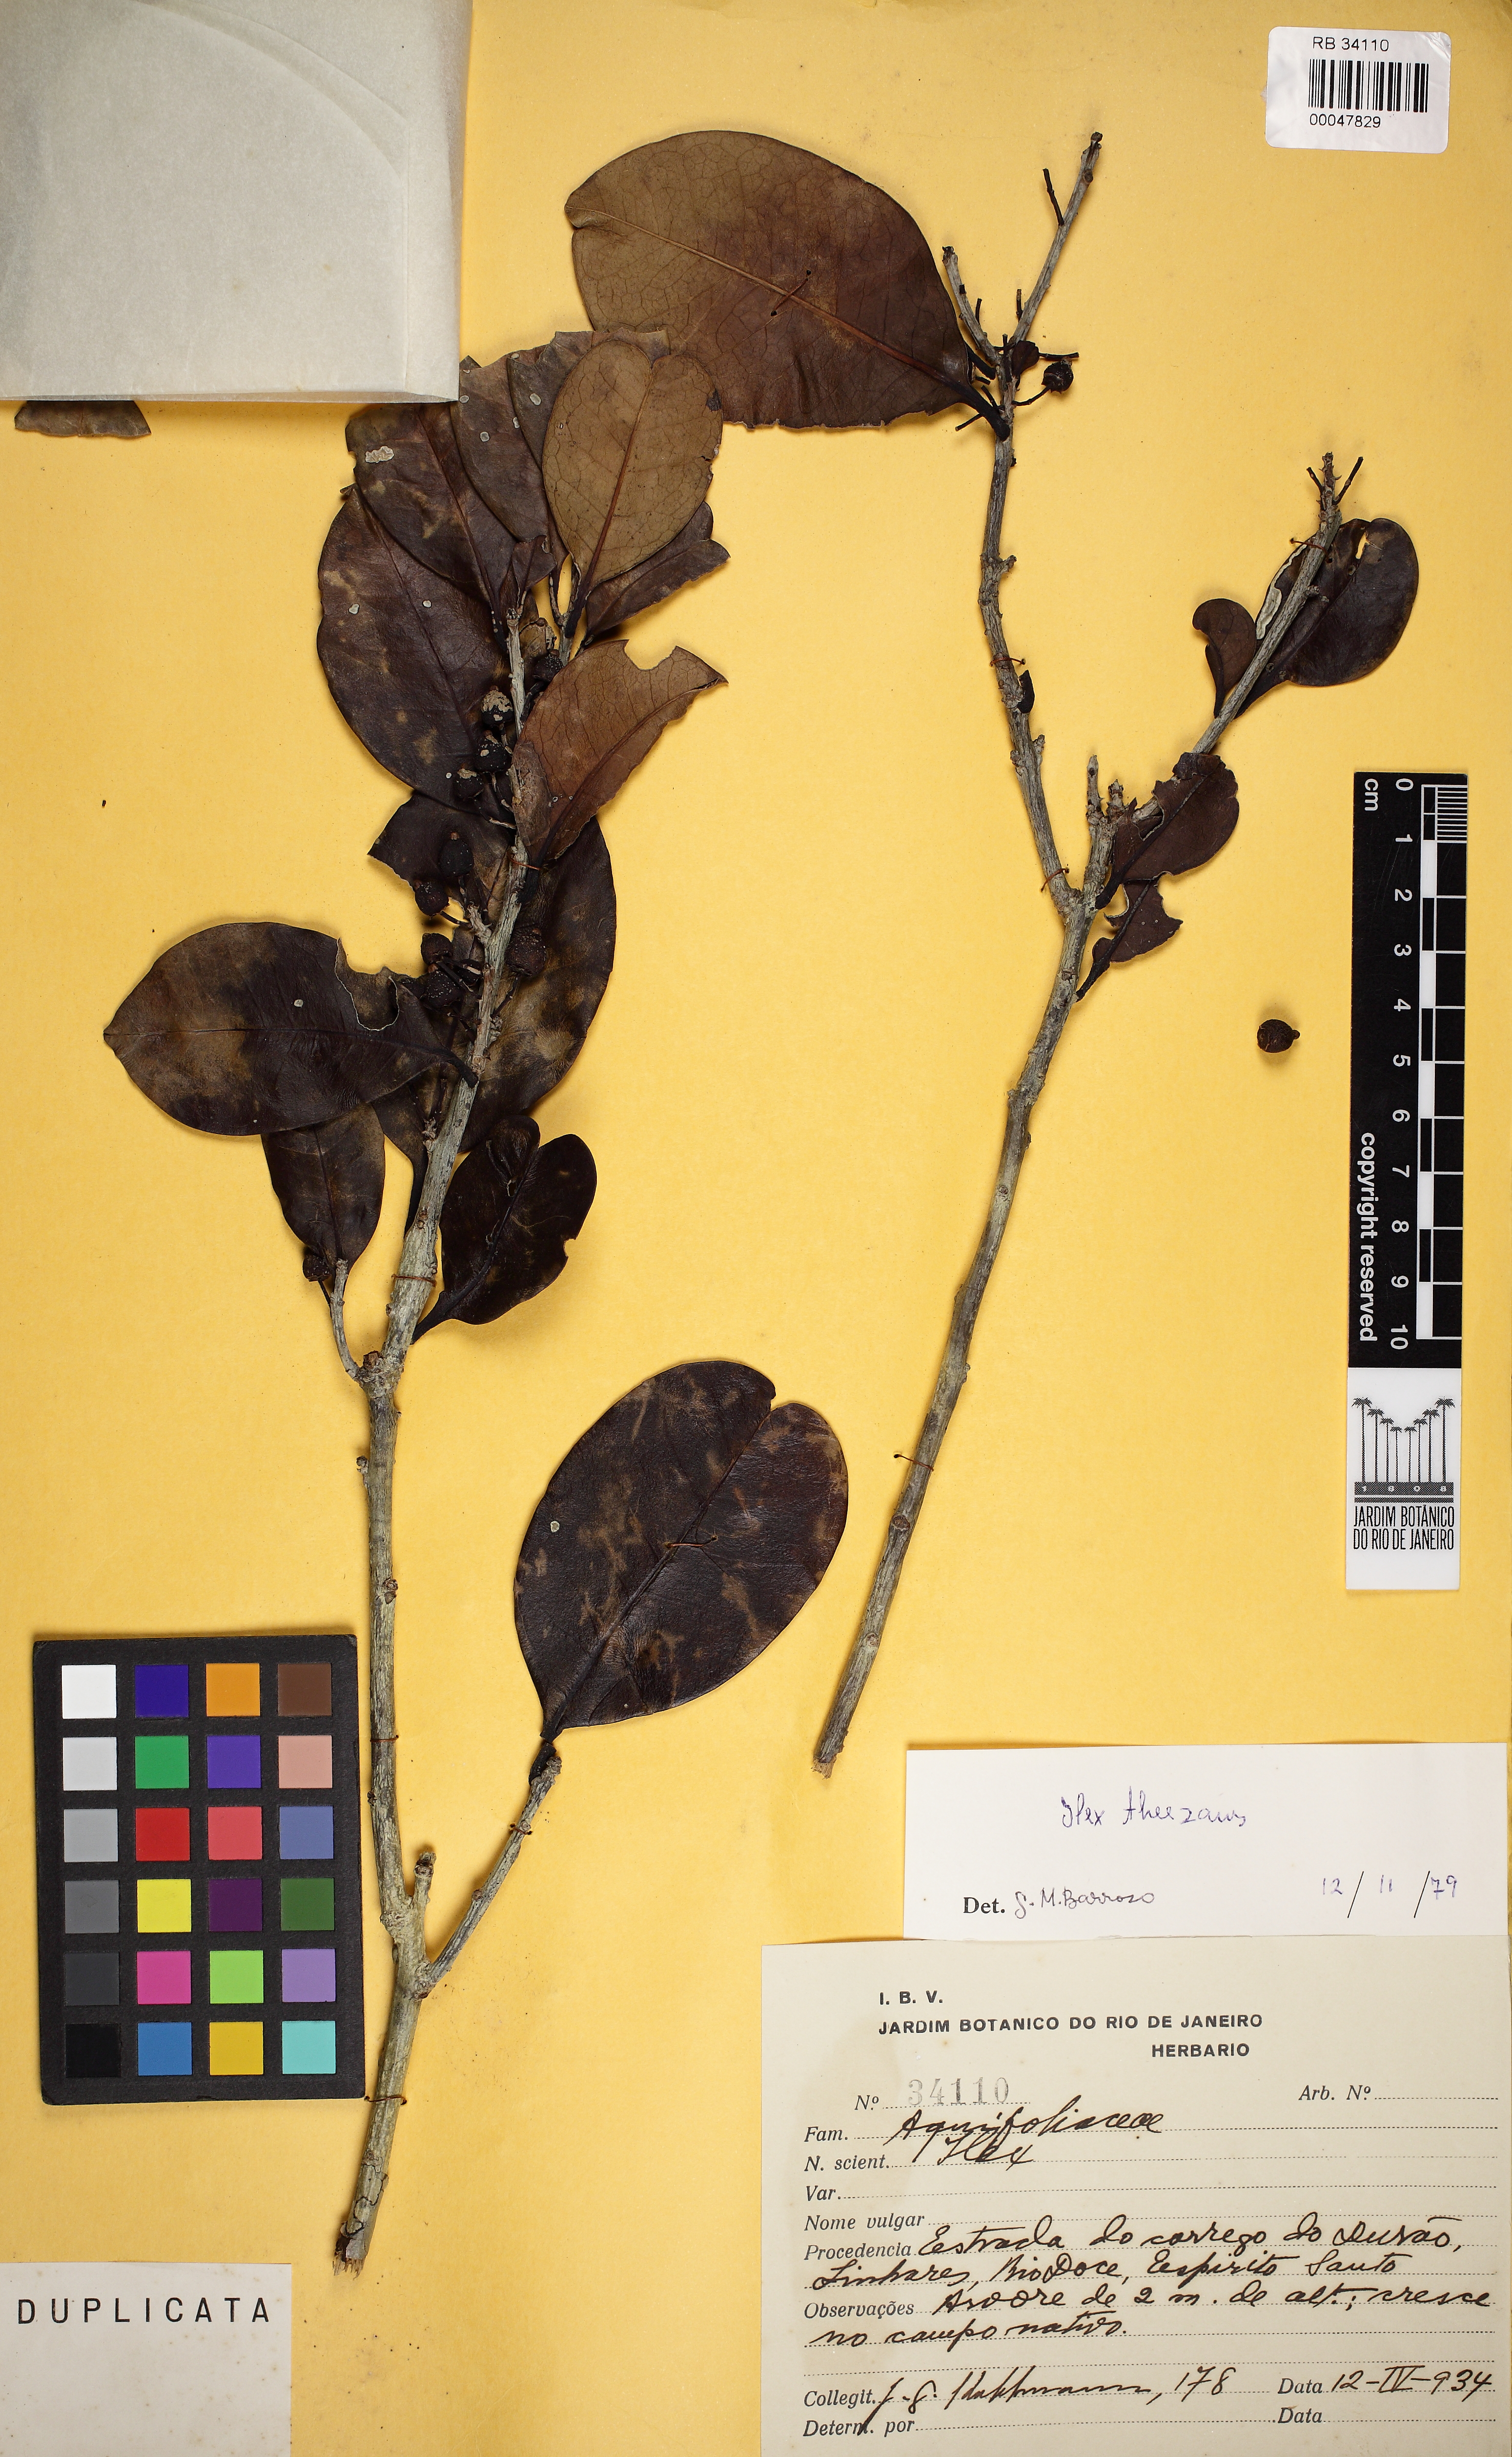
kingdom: Plantae
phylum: Tracheophyta
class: Magnoliopsida
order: Aquifoliales
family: Aquifoliaceae
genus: Ilex
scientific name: Ilex theezans
